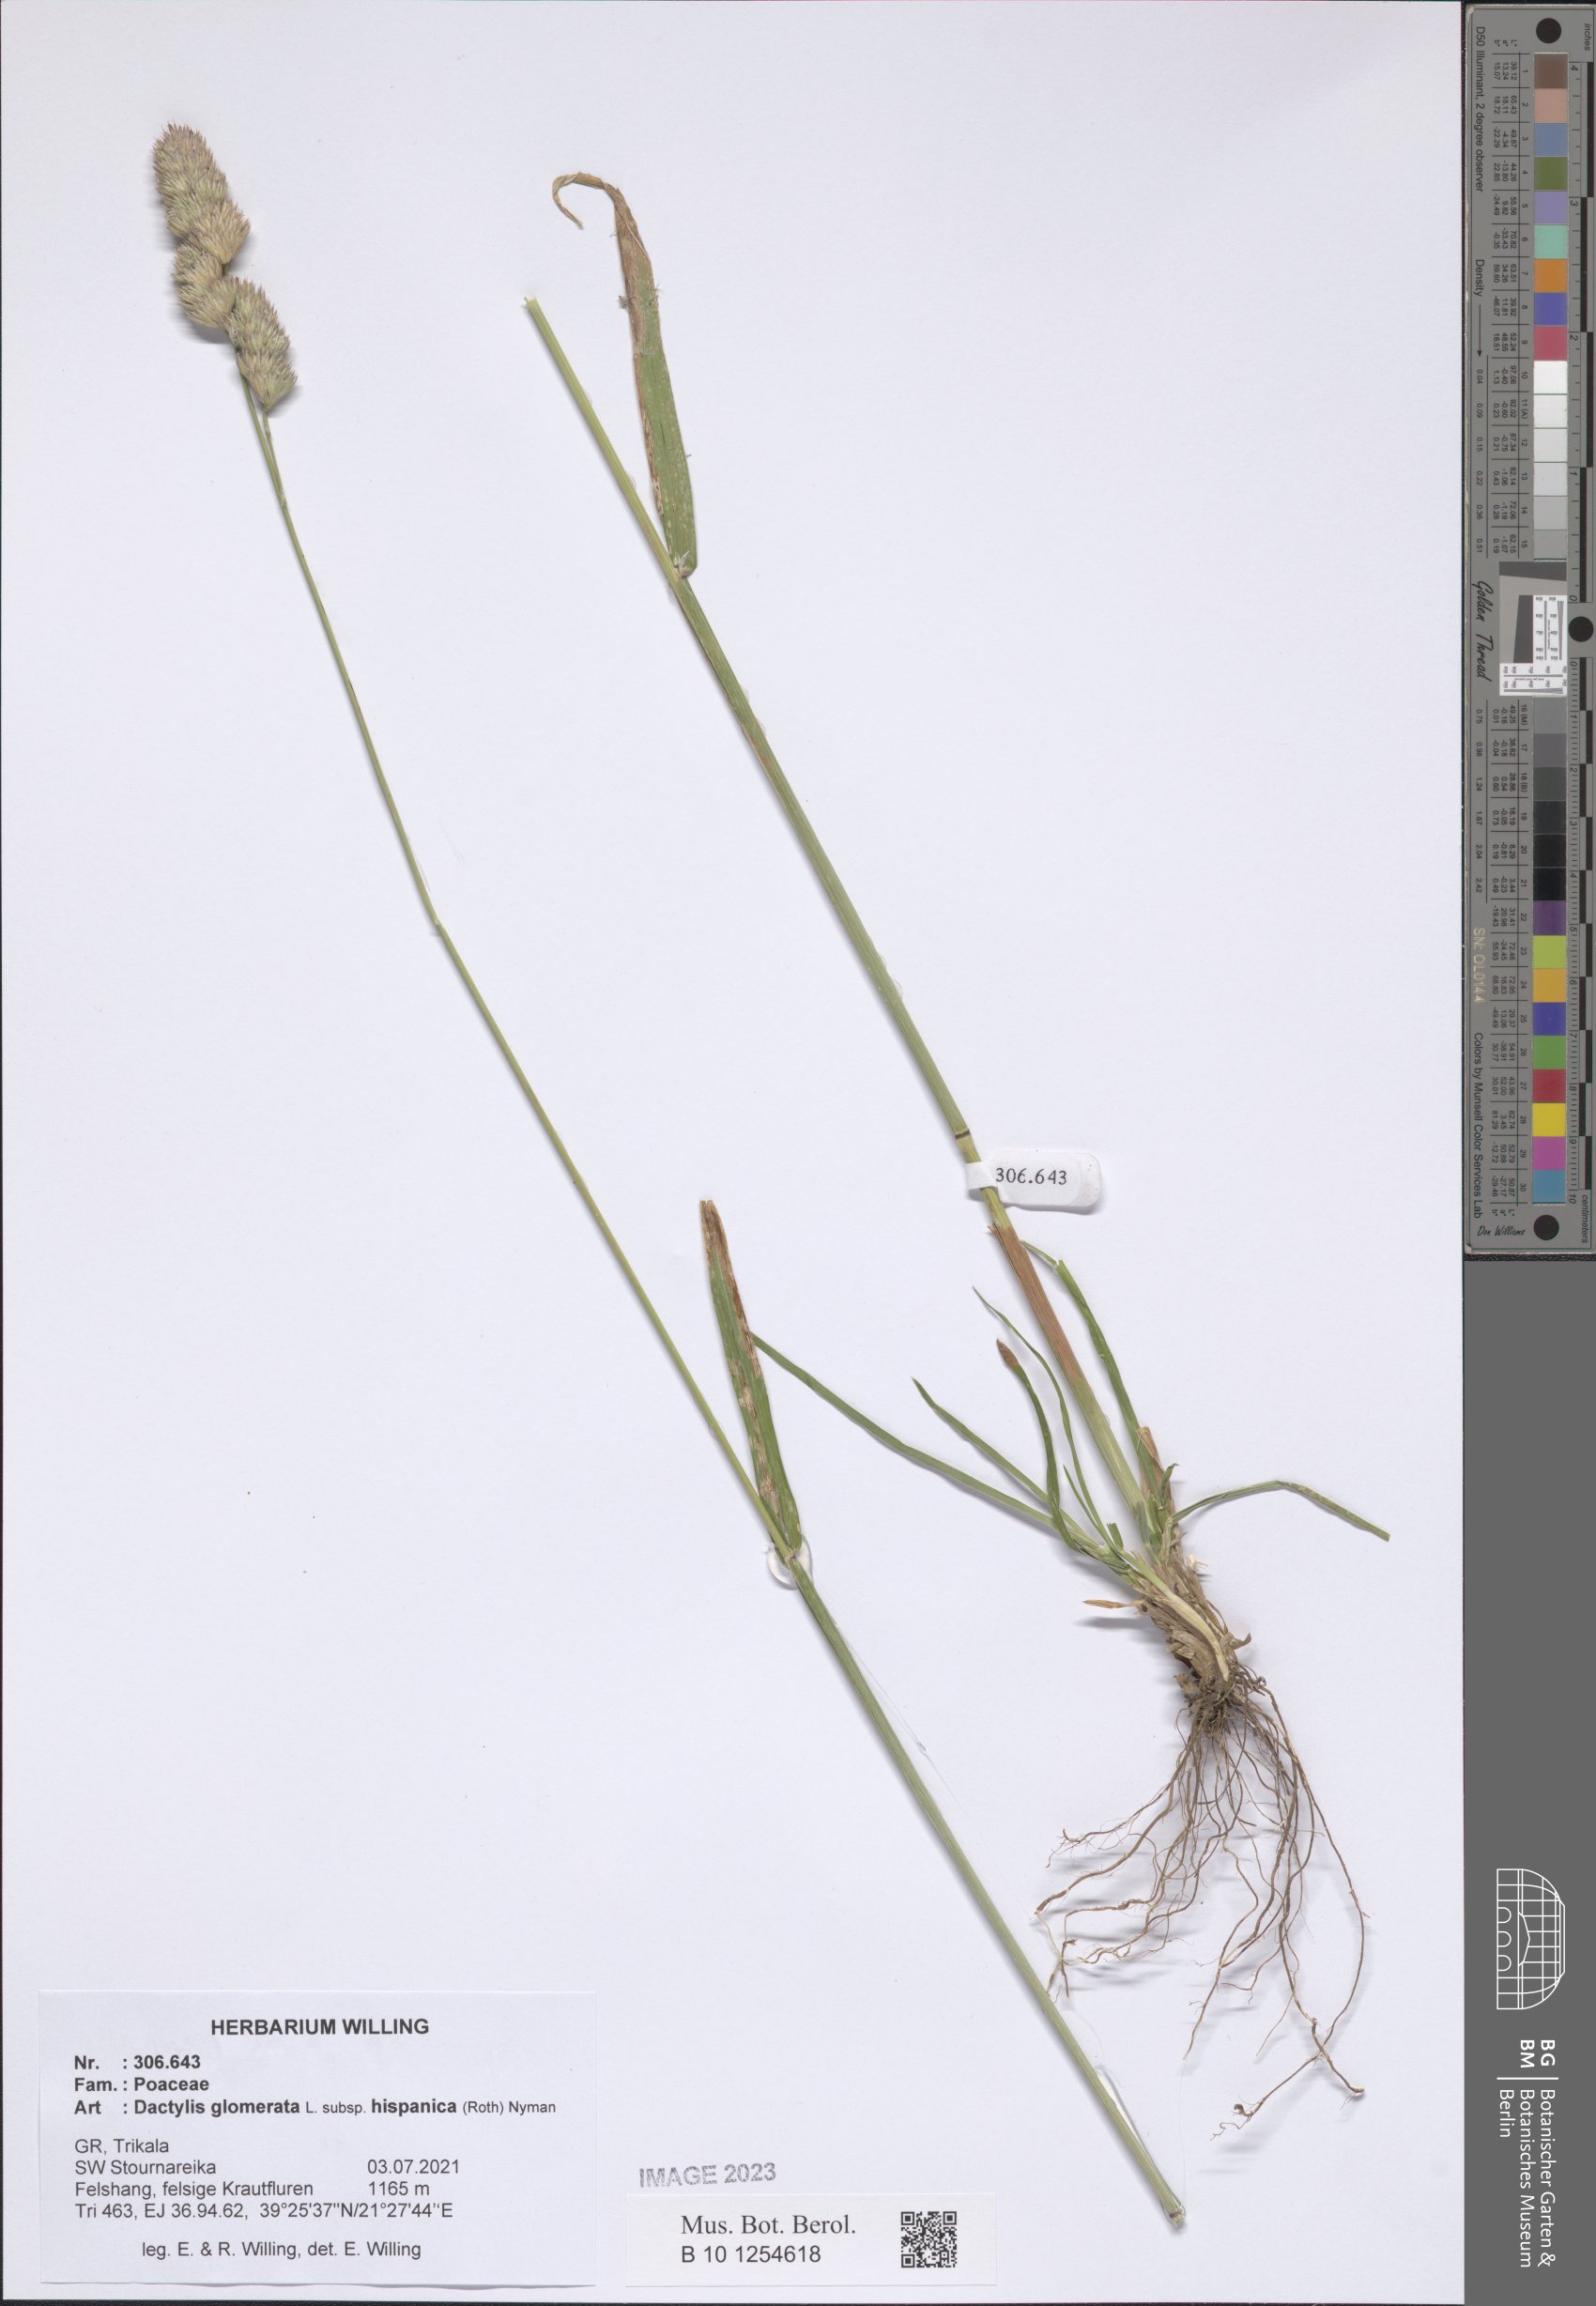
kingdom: Plantae
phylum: Tracheophyta
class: Liliopsida
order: Poales
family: Poaceae
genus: Dactylis
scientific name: Dactylis glomerata
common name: Orchardgrass
